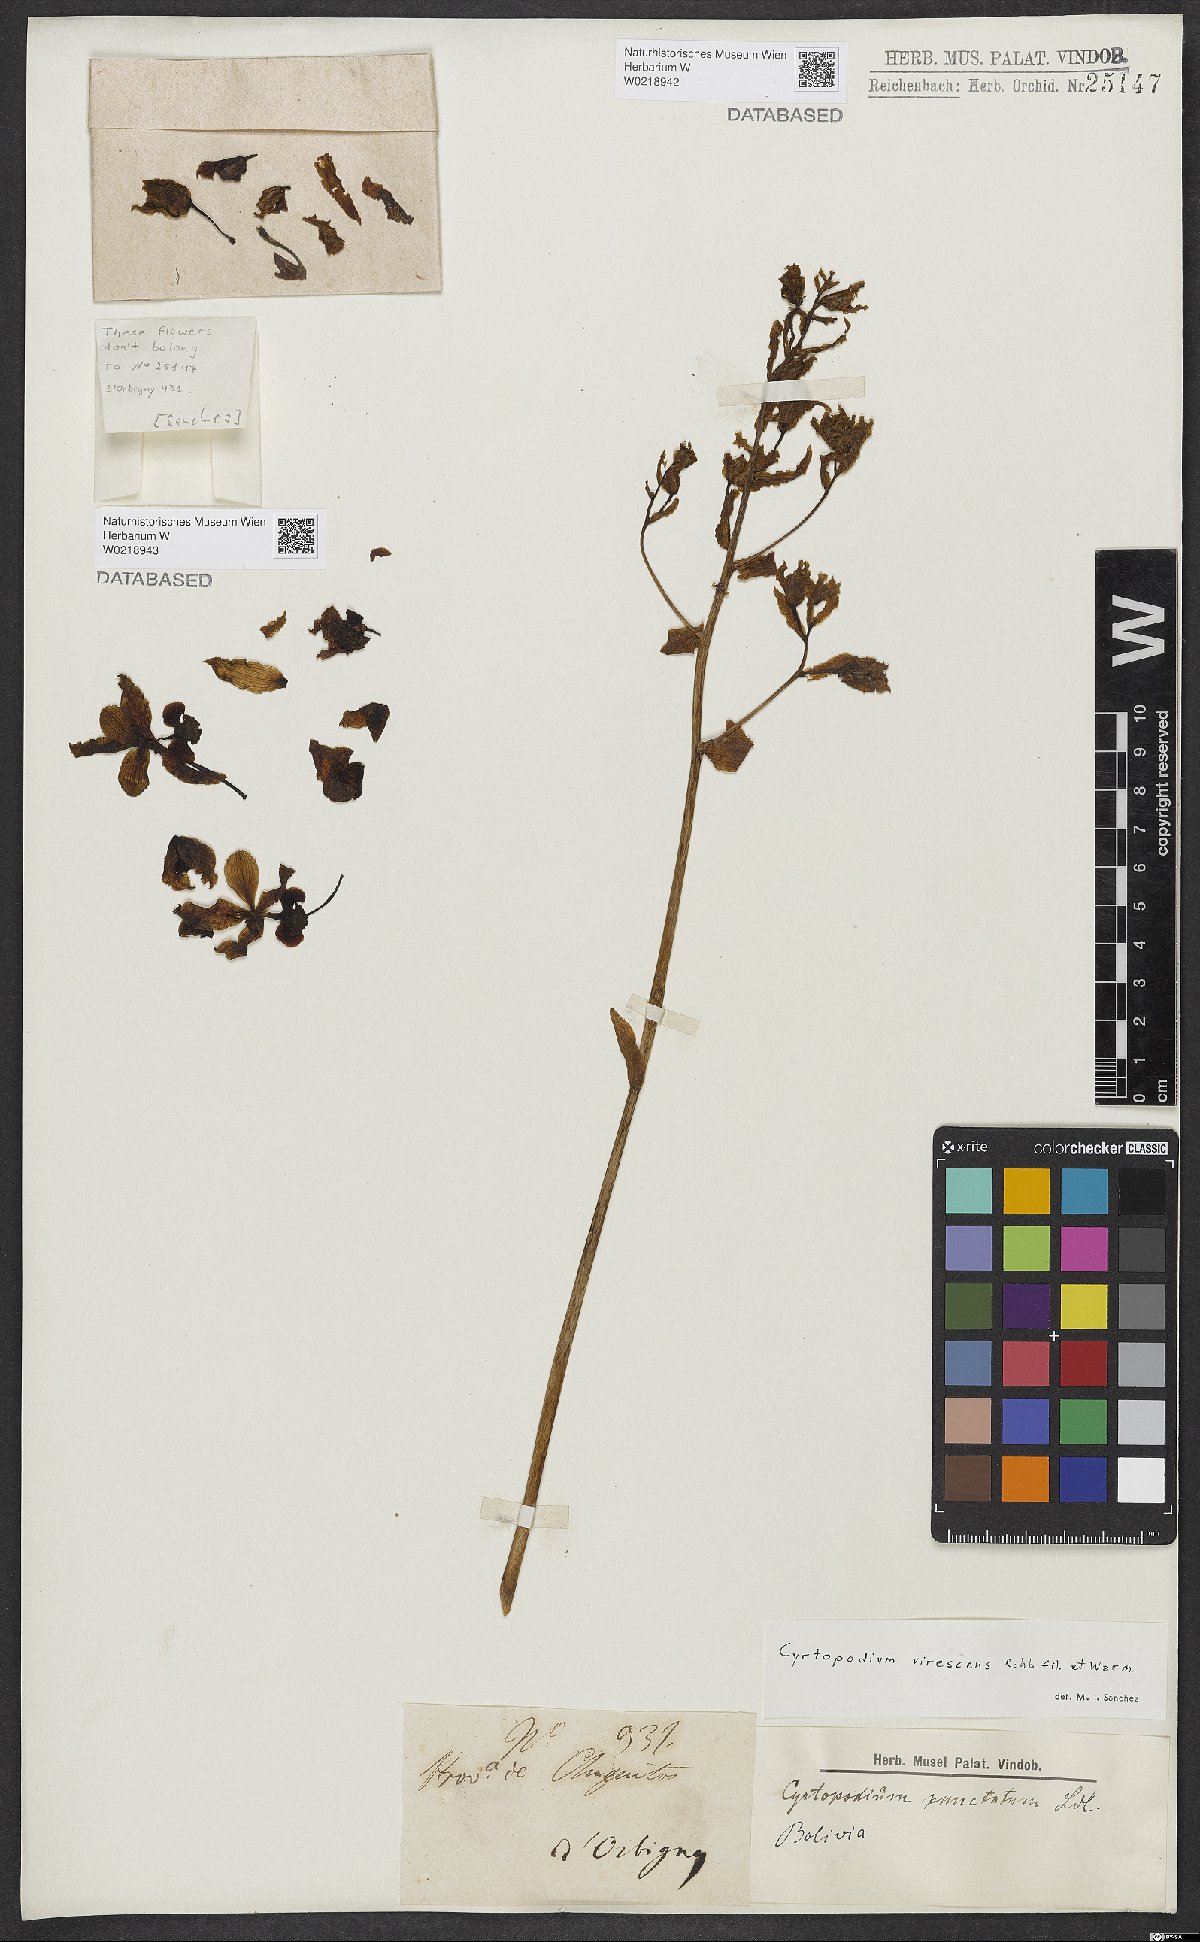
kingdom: Plantae
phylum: Tracheophyta
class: Liliopsida
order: Asparagales
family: Orchidaceae
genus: Cyrtopodium
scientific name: Cyrtopodium virescens
